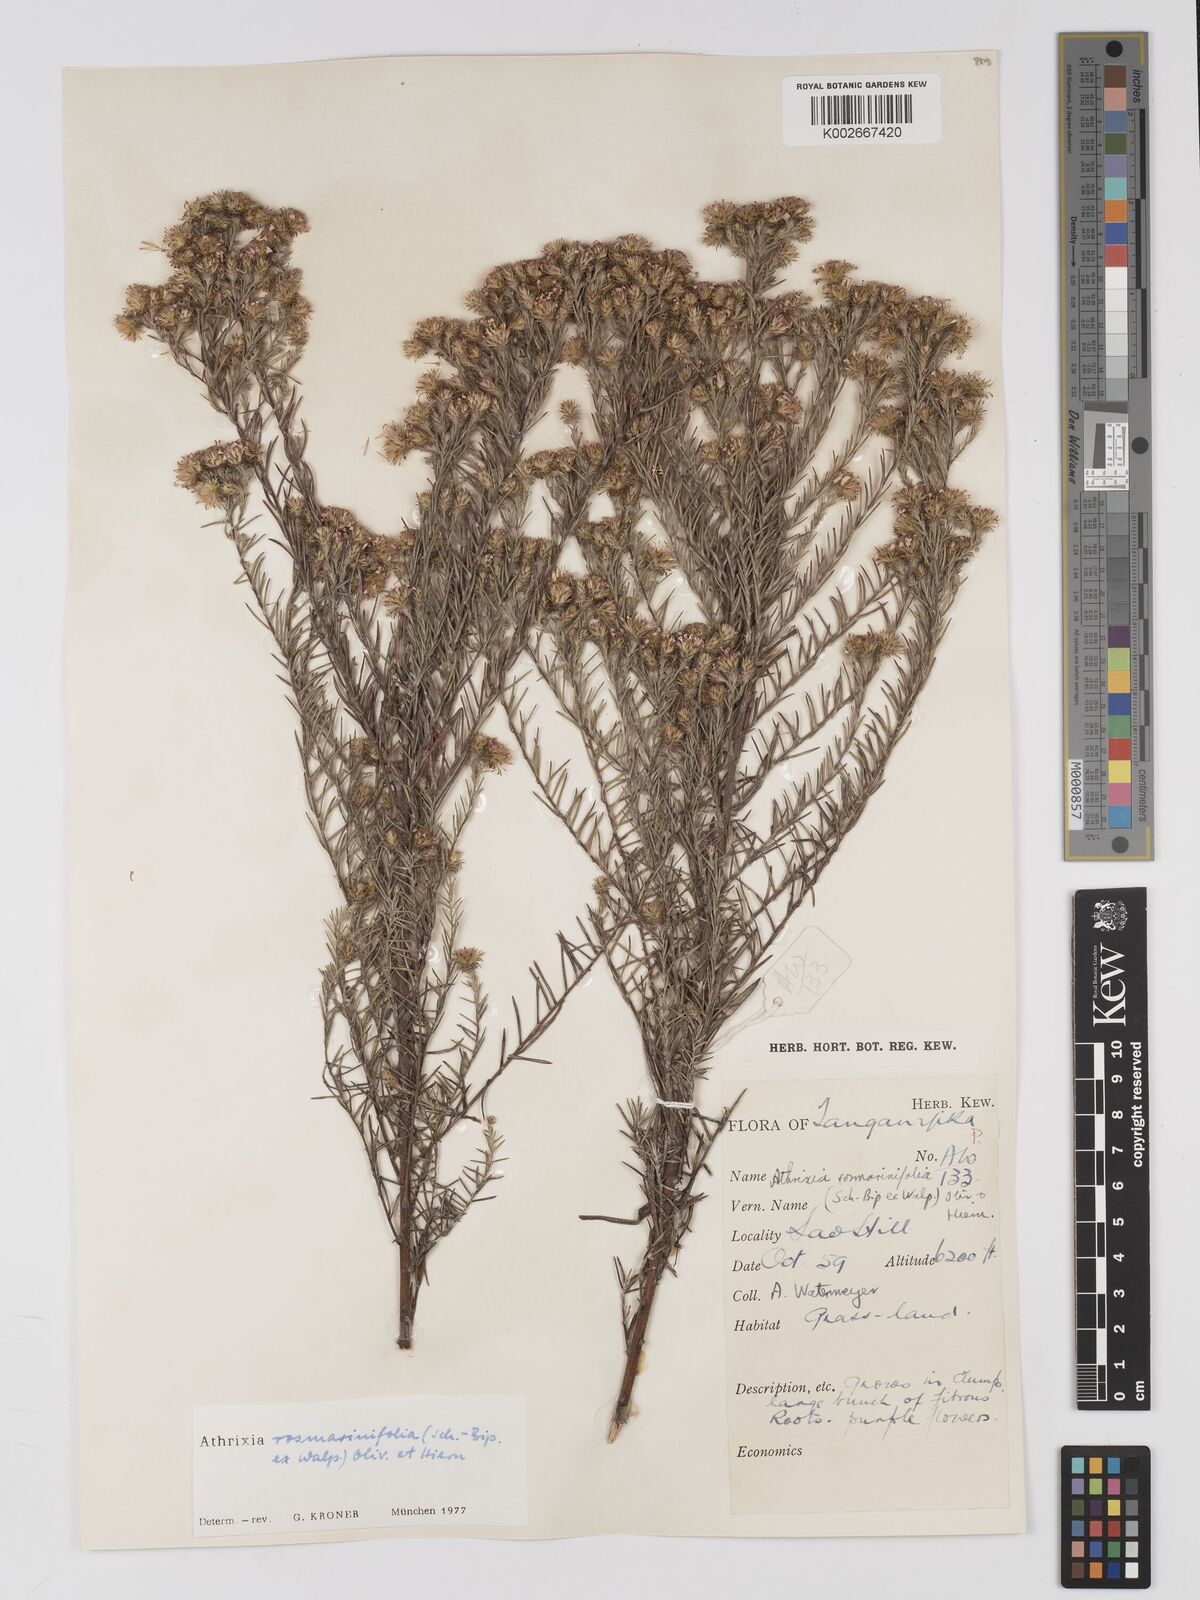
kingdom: Plantae
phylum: Tracheophyta
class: Magnoliopsida
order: Asterales
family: Asteraceae
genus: Athrixia
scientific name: Athrixia rosmarinifolia
